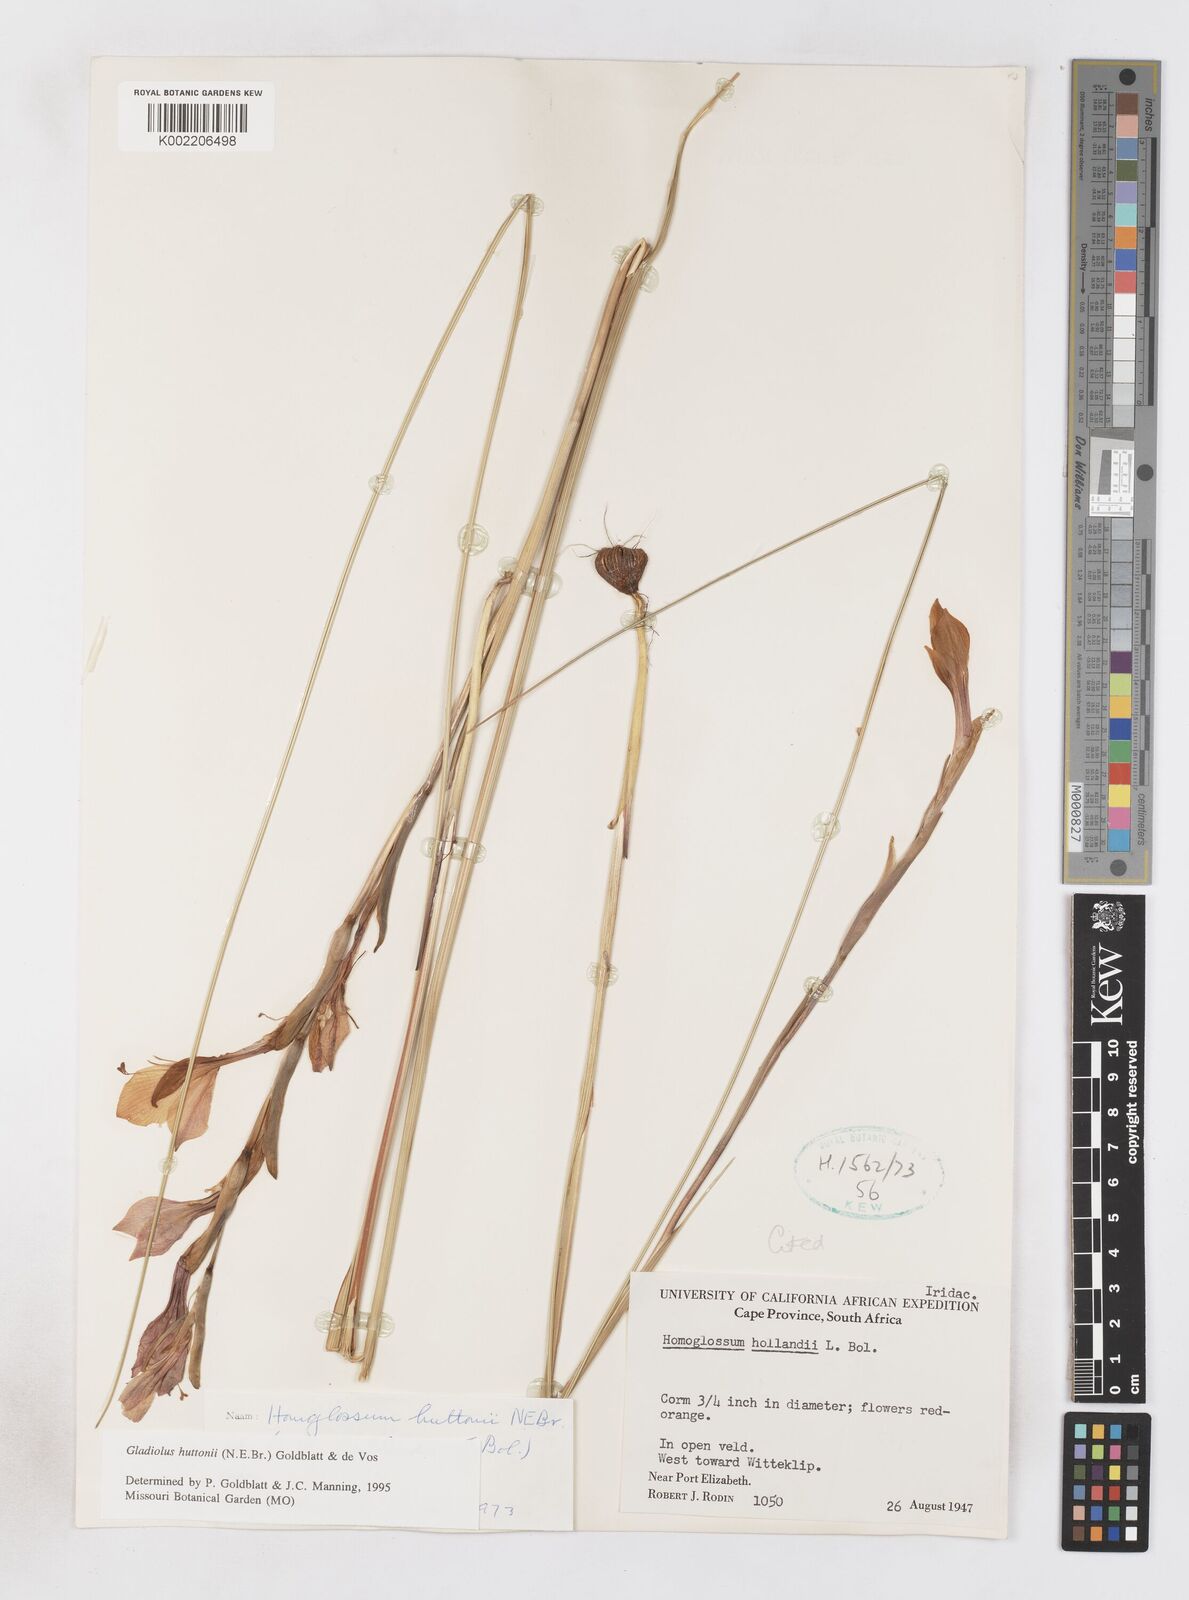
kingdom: Plantae
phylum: Tracheophyta
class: Liliopsida
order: Asparagales
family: Iridaceae
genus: Gladiolus
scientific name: Gladiolus huttonii
